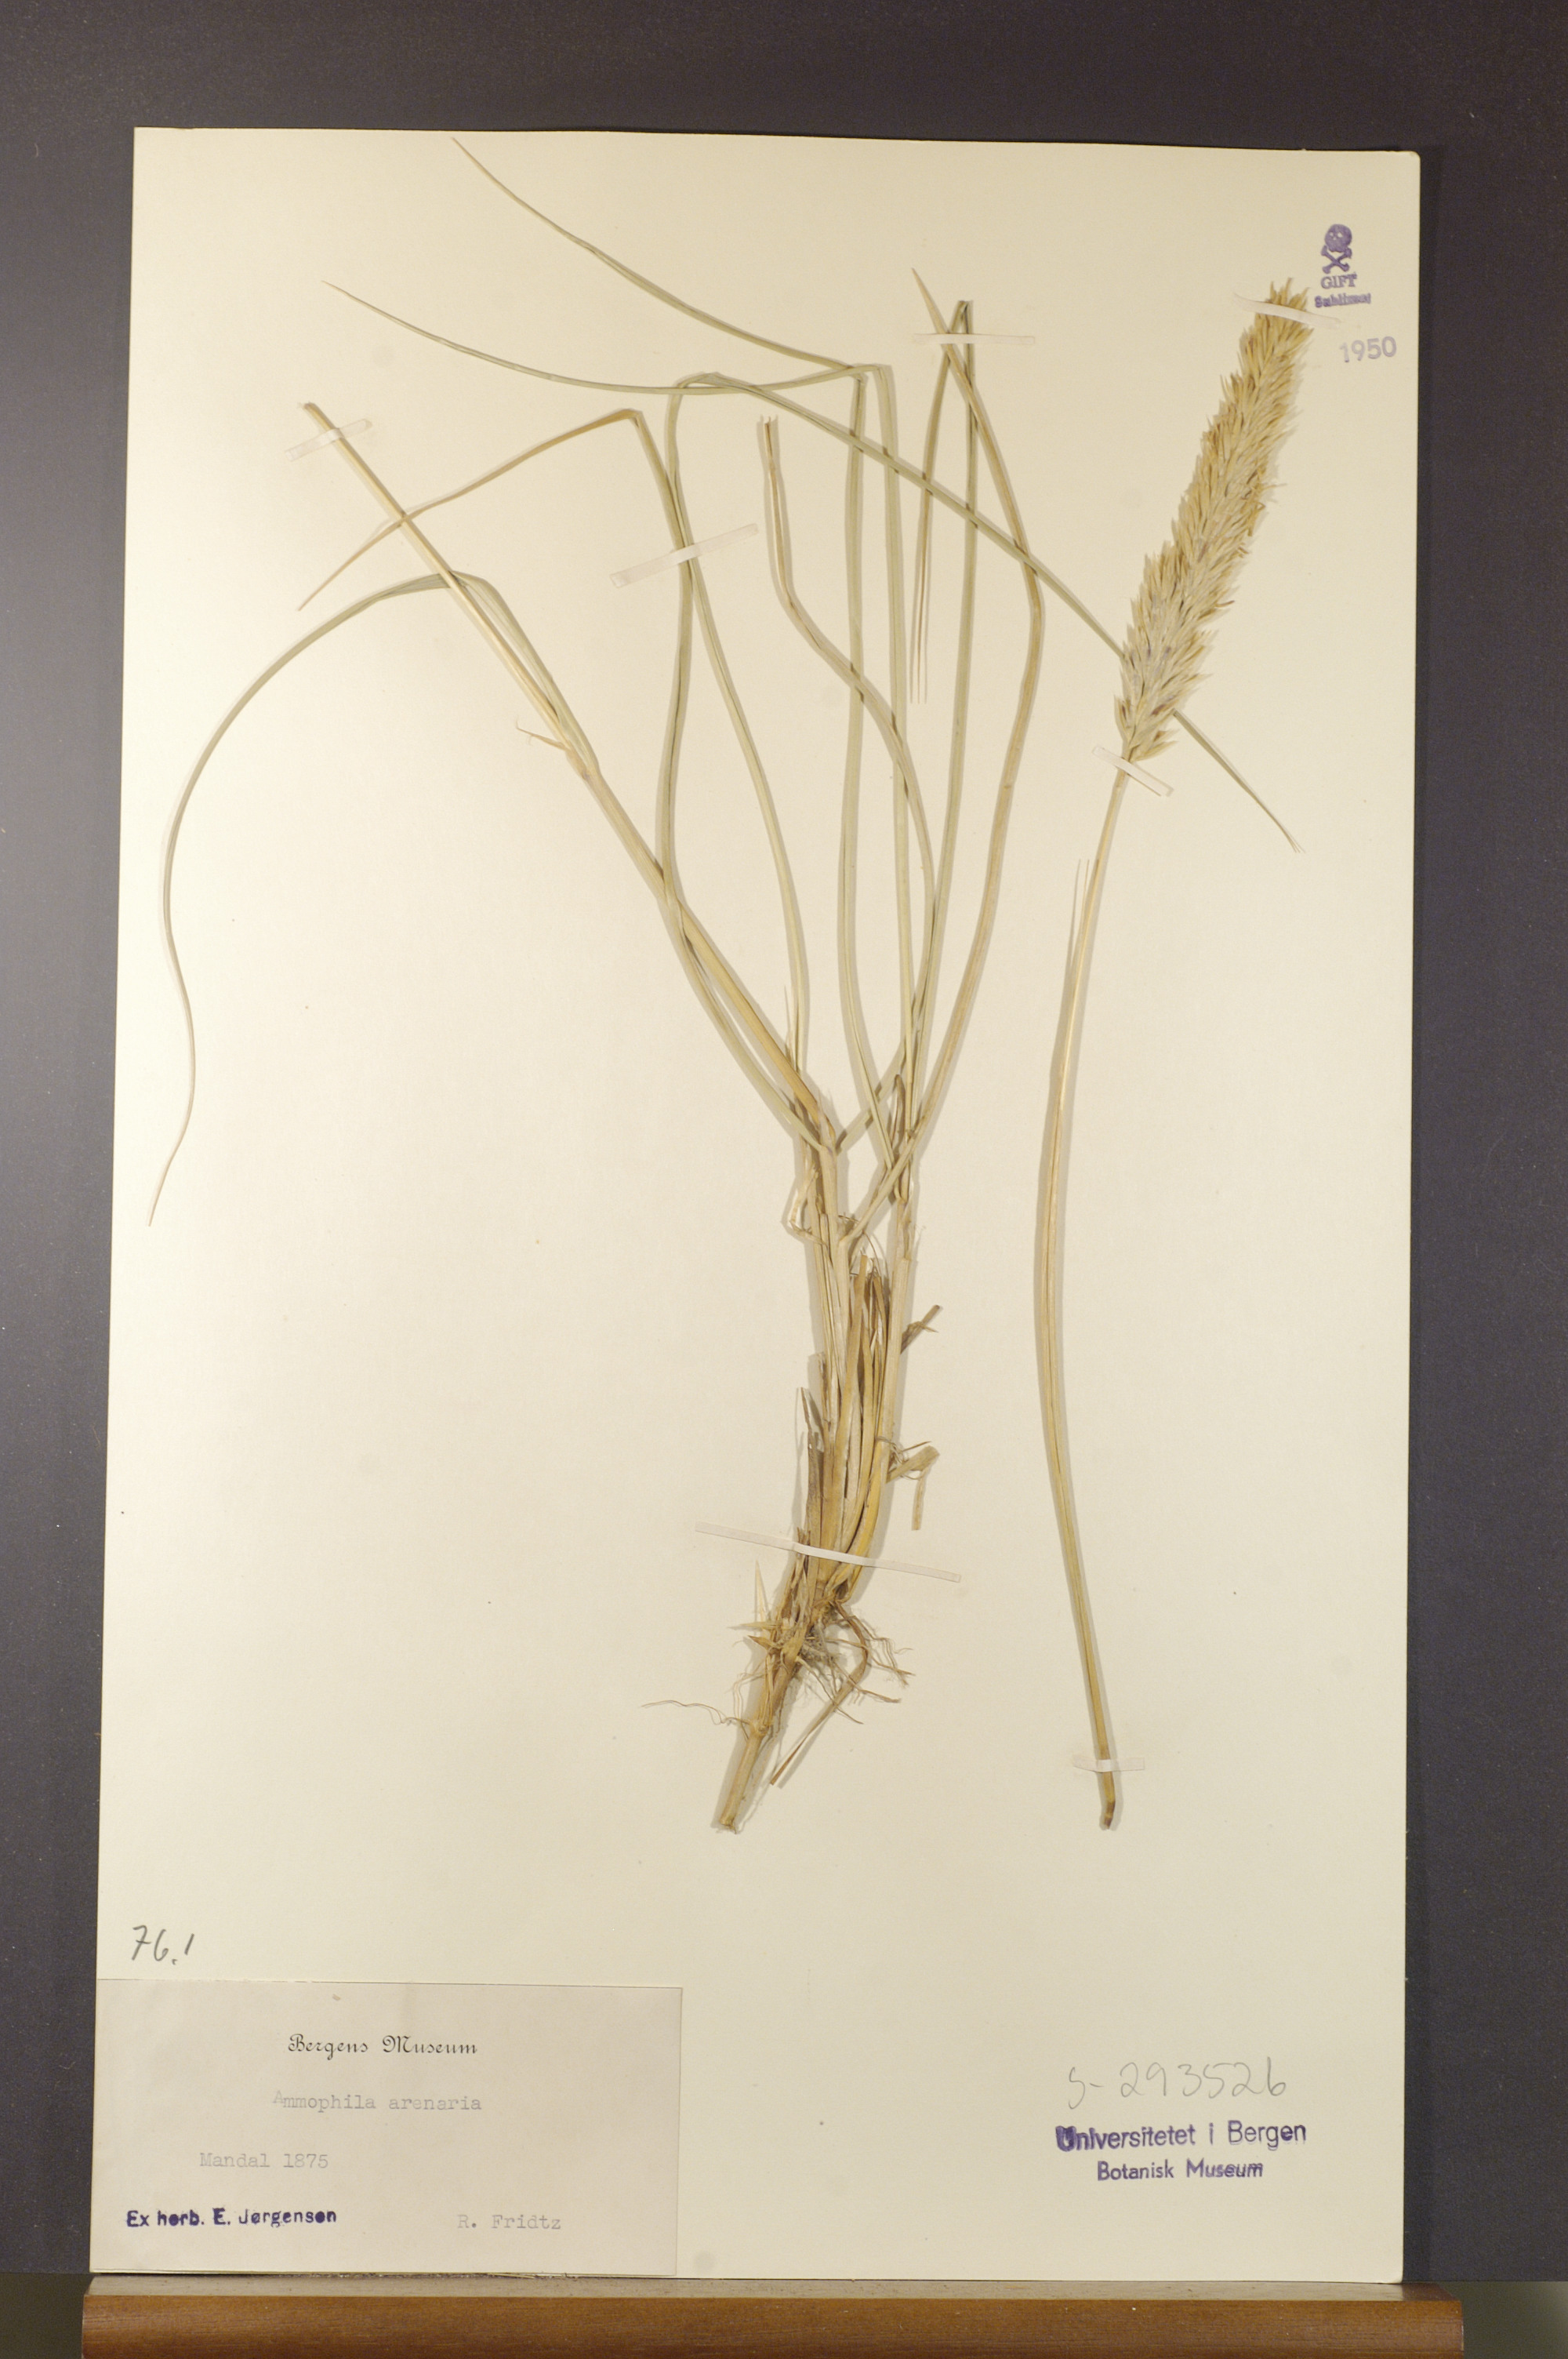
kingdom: Plantae
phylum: Tracheophyta
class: Liliopsida
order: Poales
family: Poaceae
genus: Calamagrostis
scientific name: Calamagrostis arenaria
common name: European beachgrass
